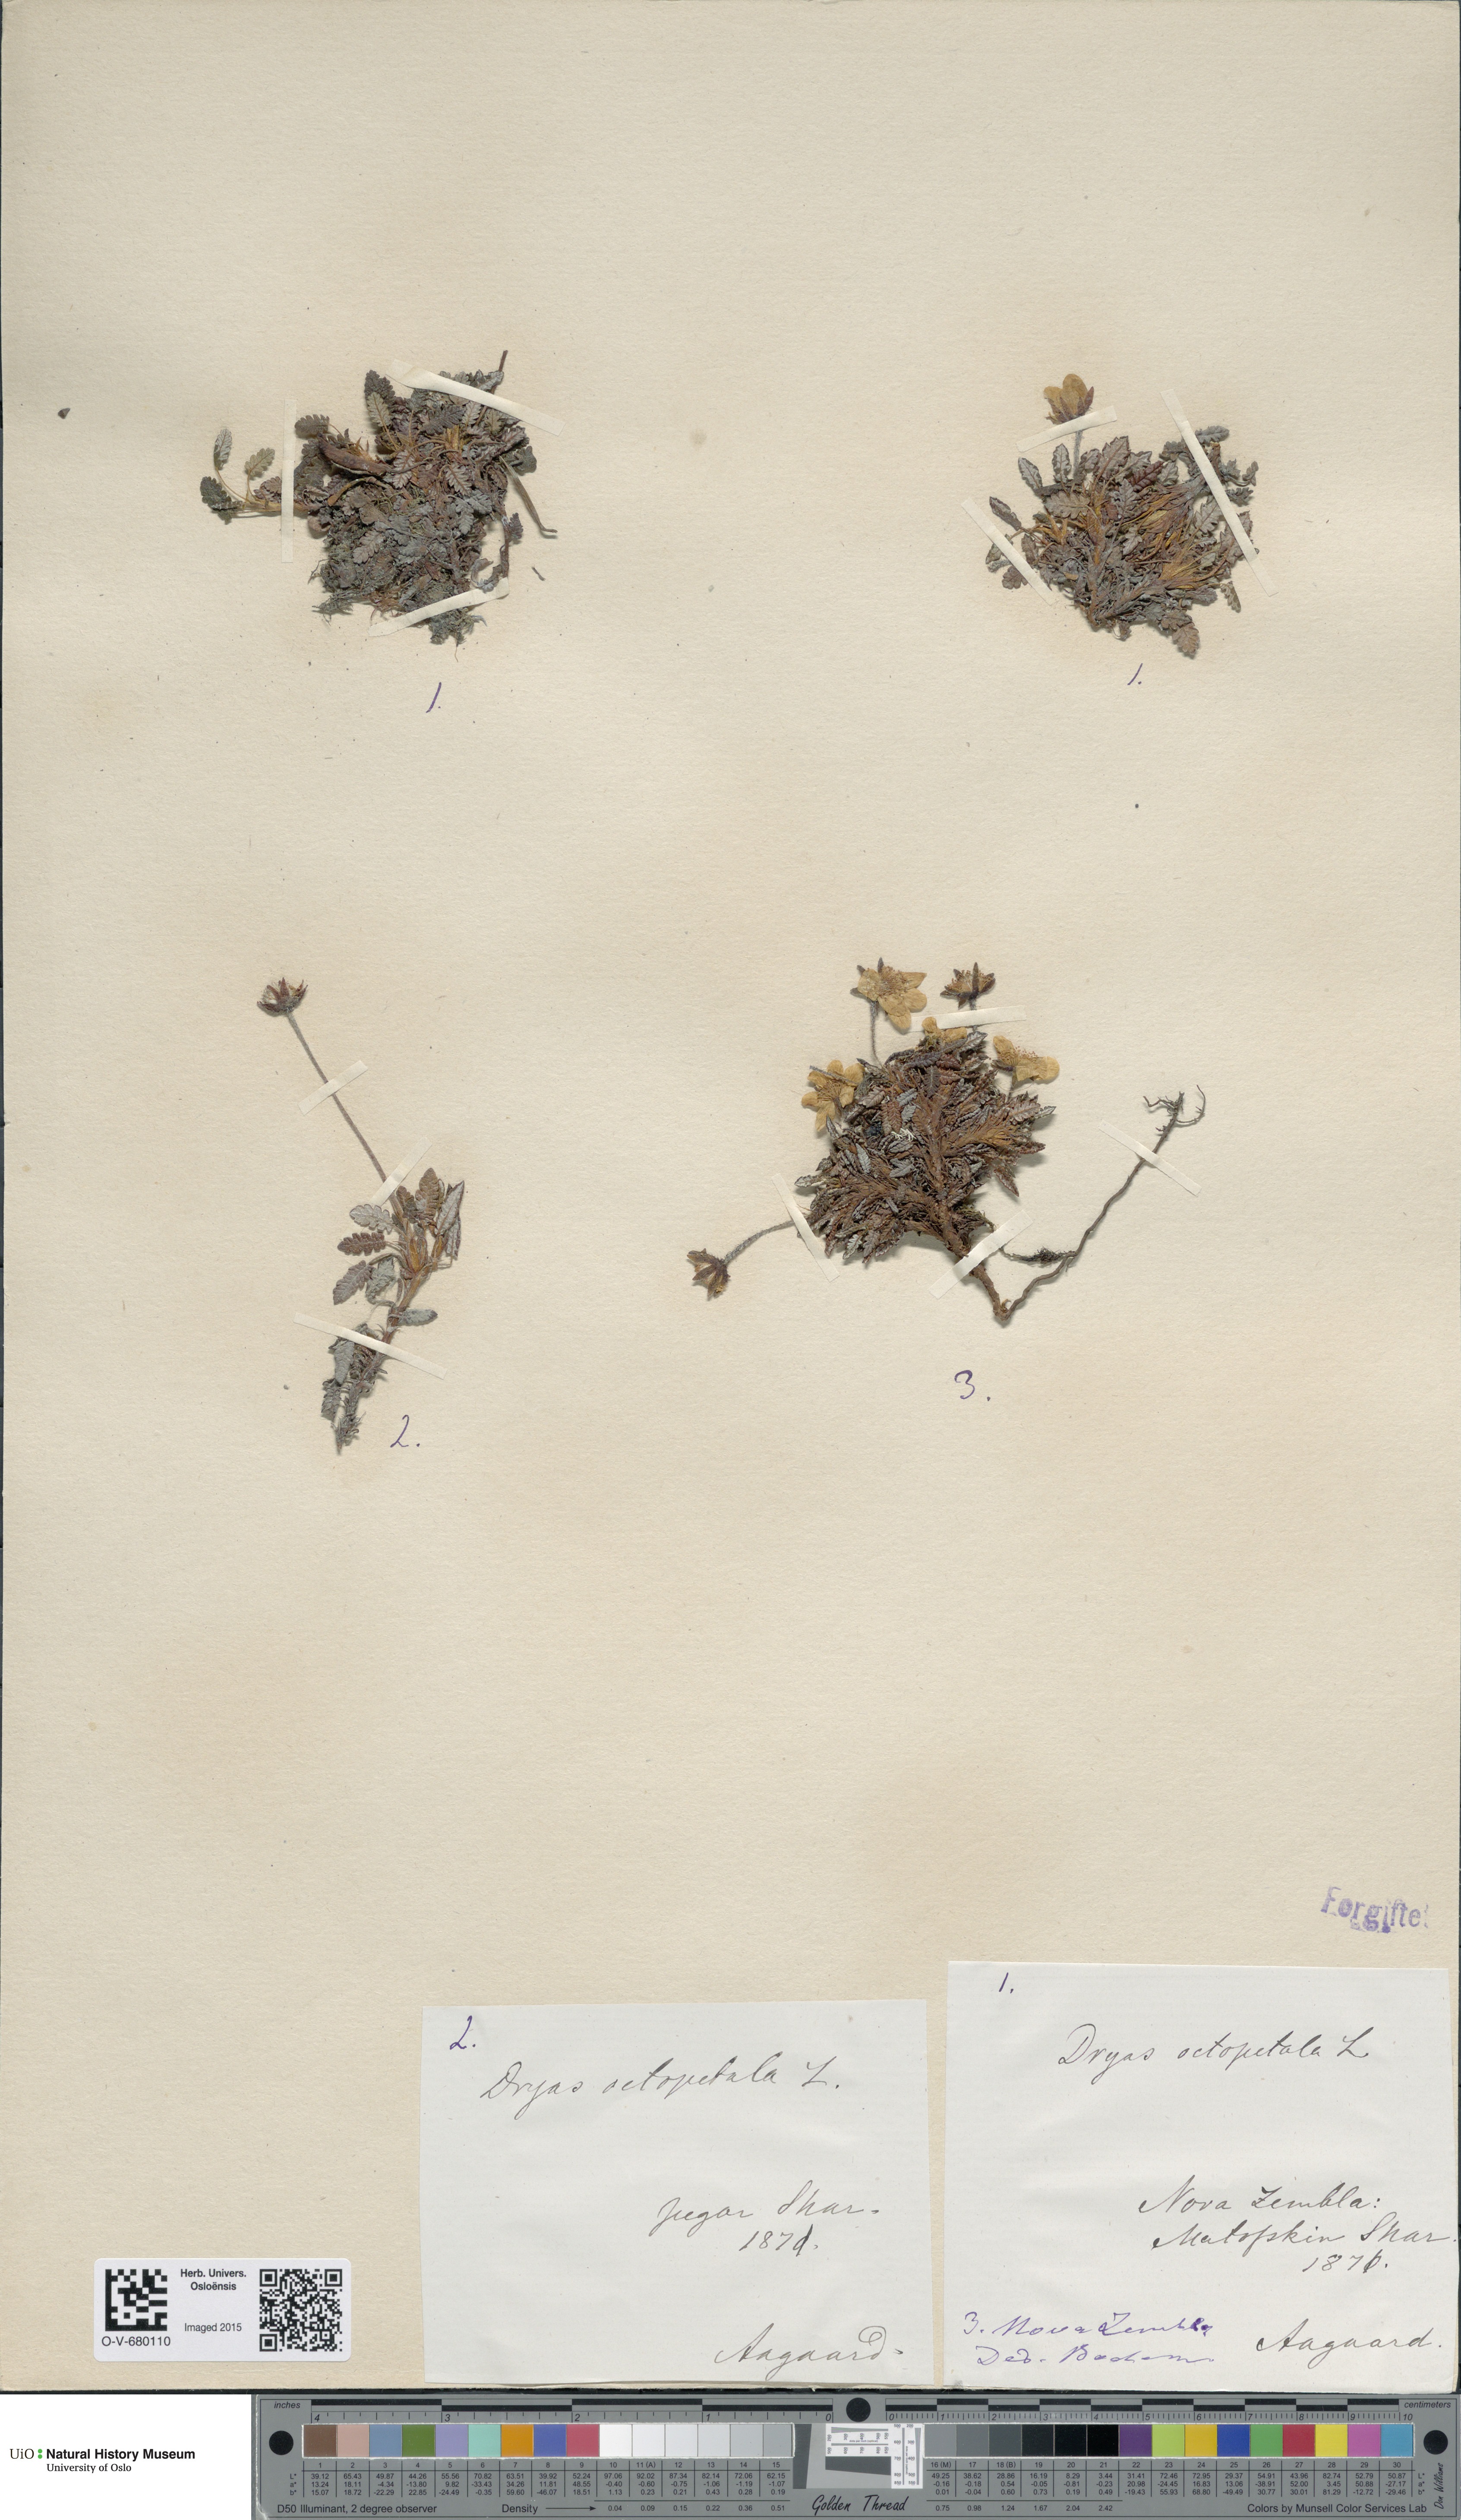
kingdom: Plantae
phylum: Tracheophyta
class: Magnoliopsida
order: Rosales
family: Rosaceae
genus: Dryas
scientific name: Dryas octopetala
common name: Eight-petal mountain-avens
